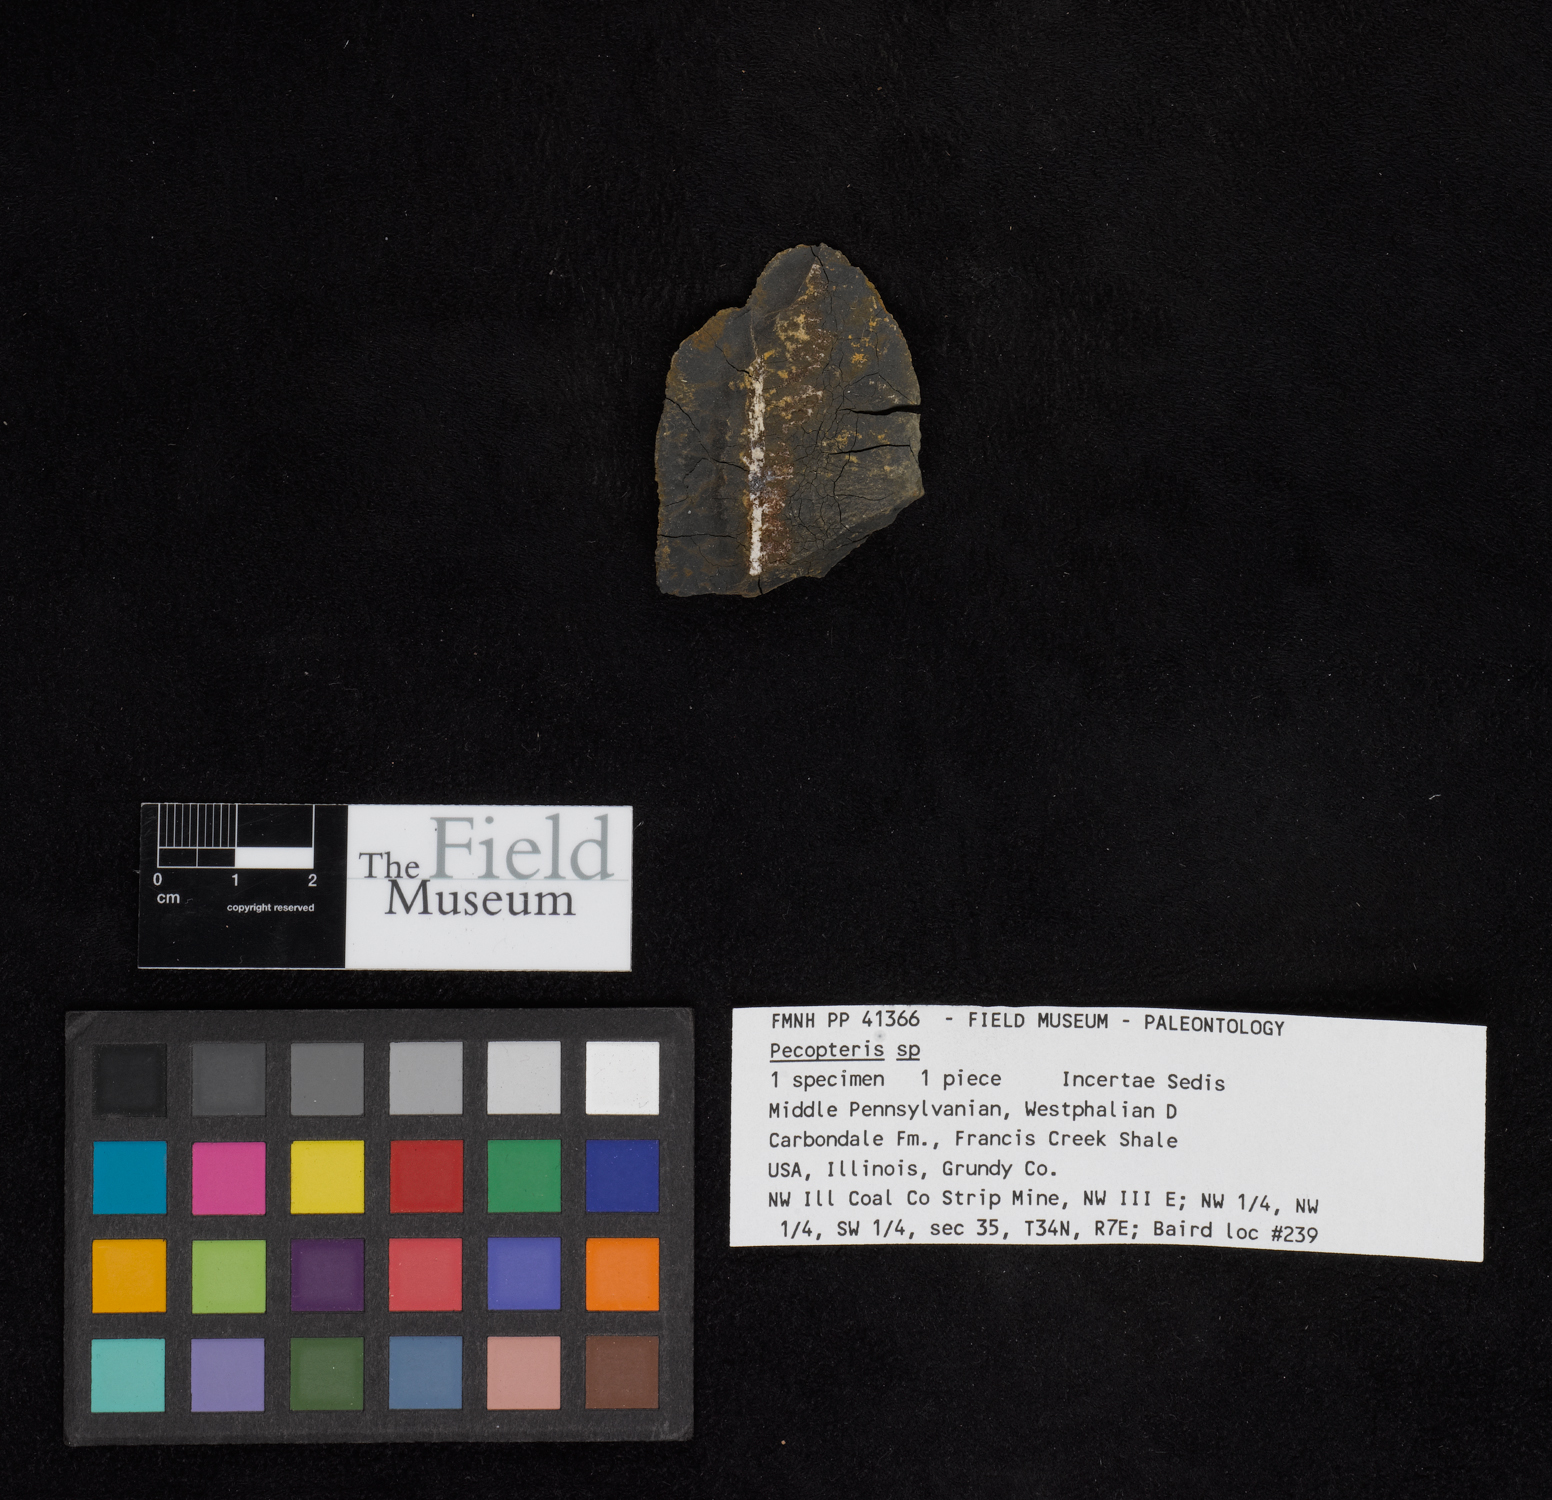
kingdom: Plantae
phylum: Tracheophyta
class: Polypodiopsida
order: Marattiales
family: Asterothecaceae
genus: Pecopteris
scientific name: Pecopteris
